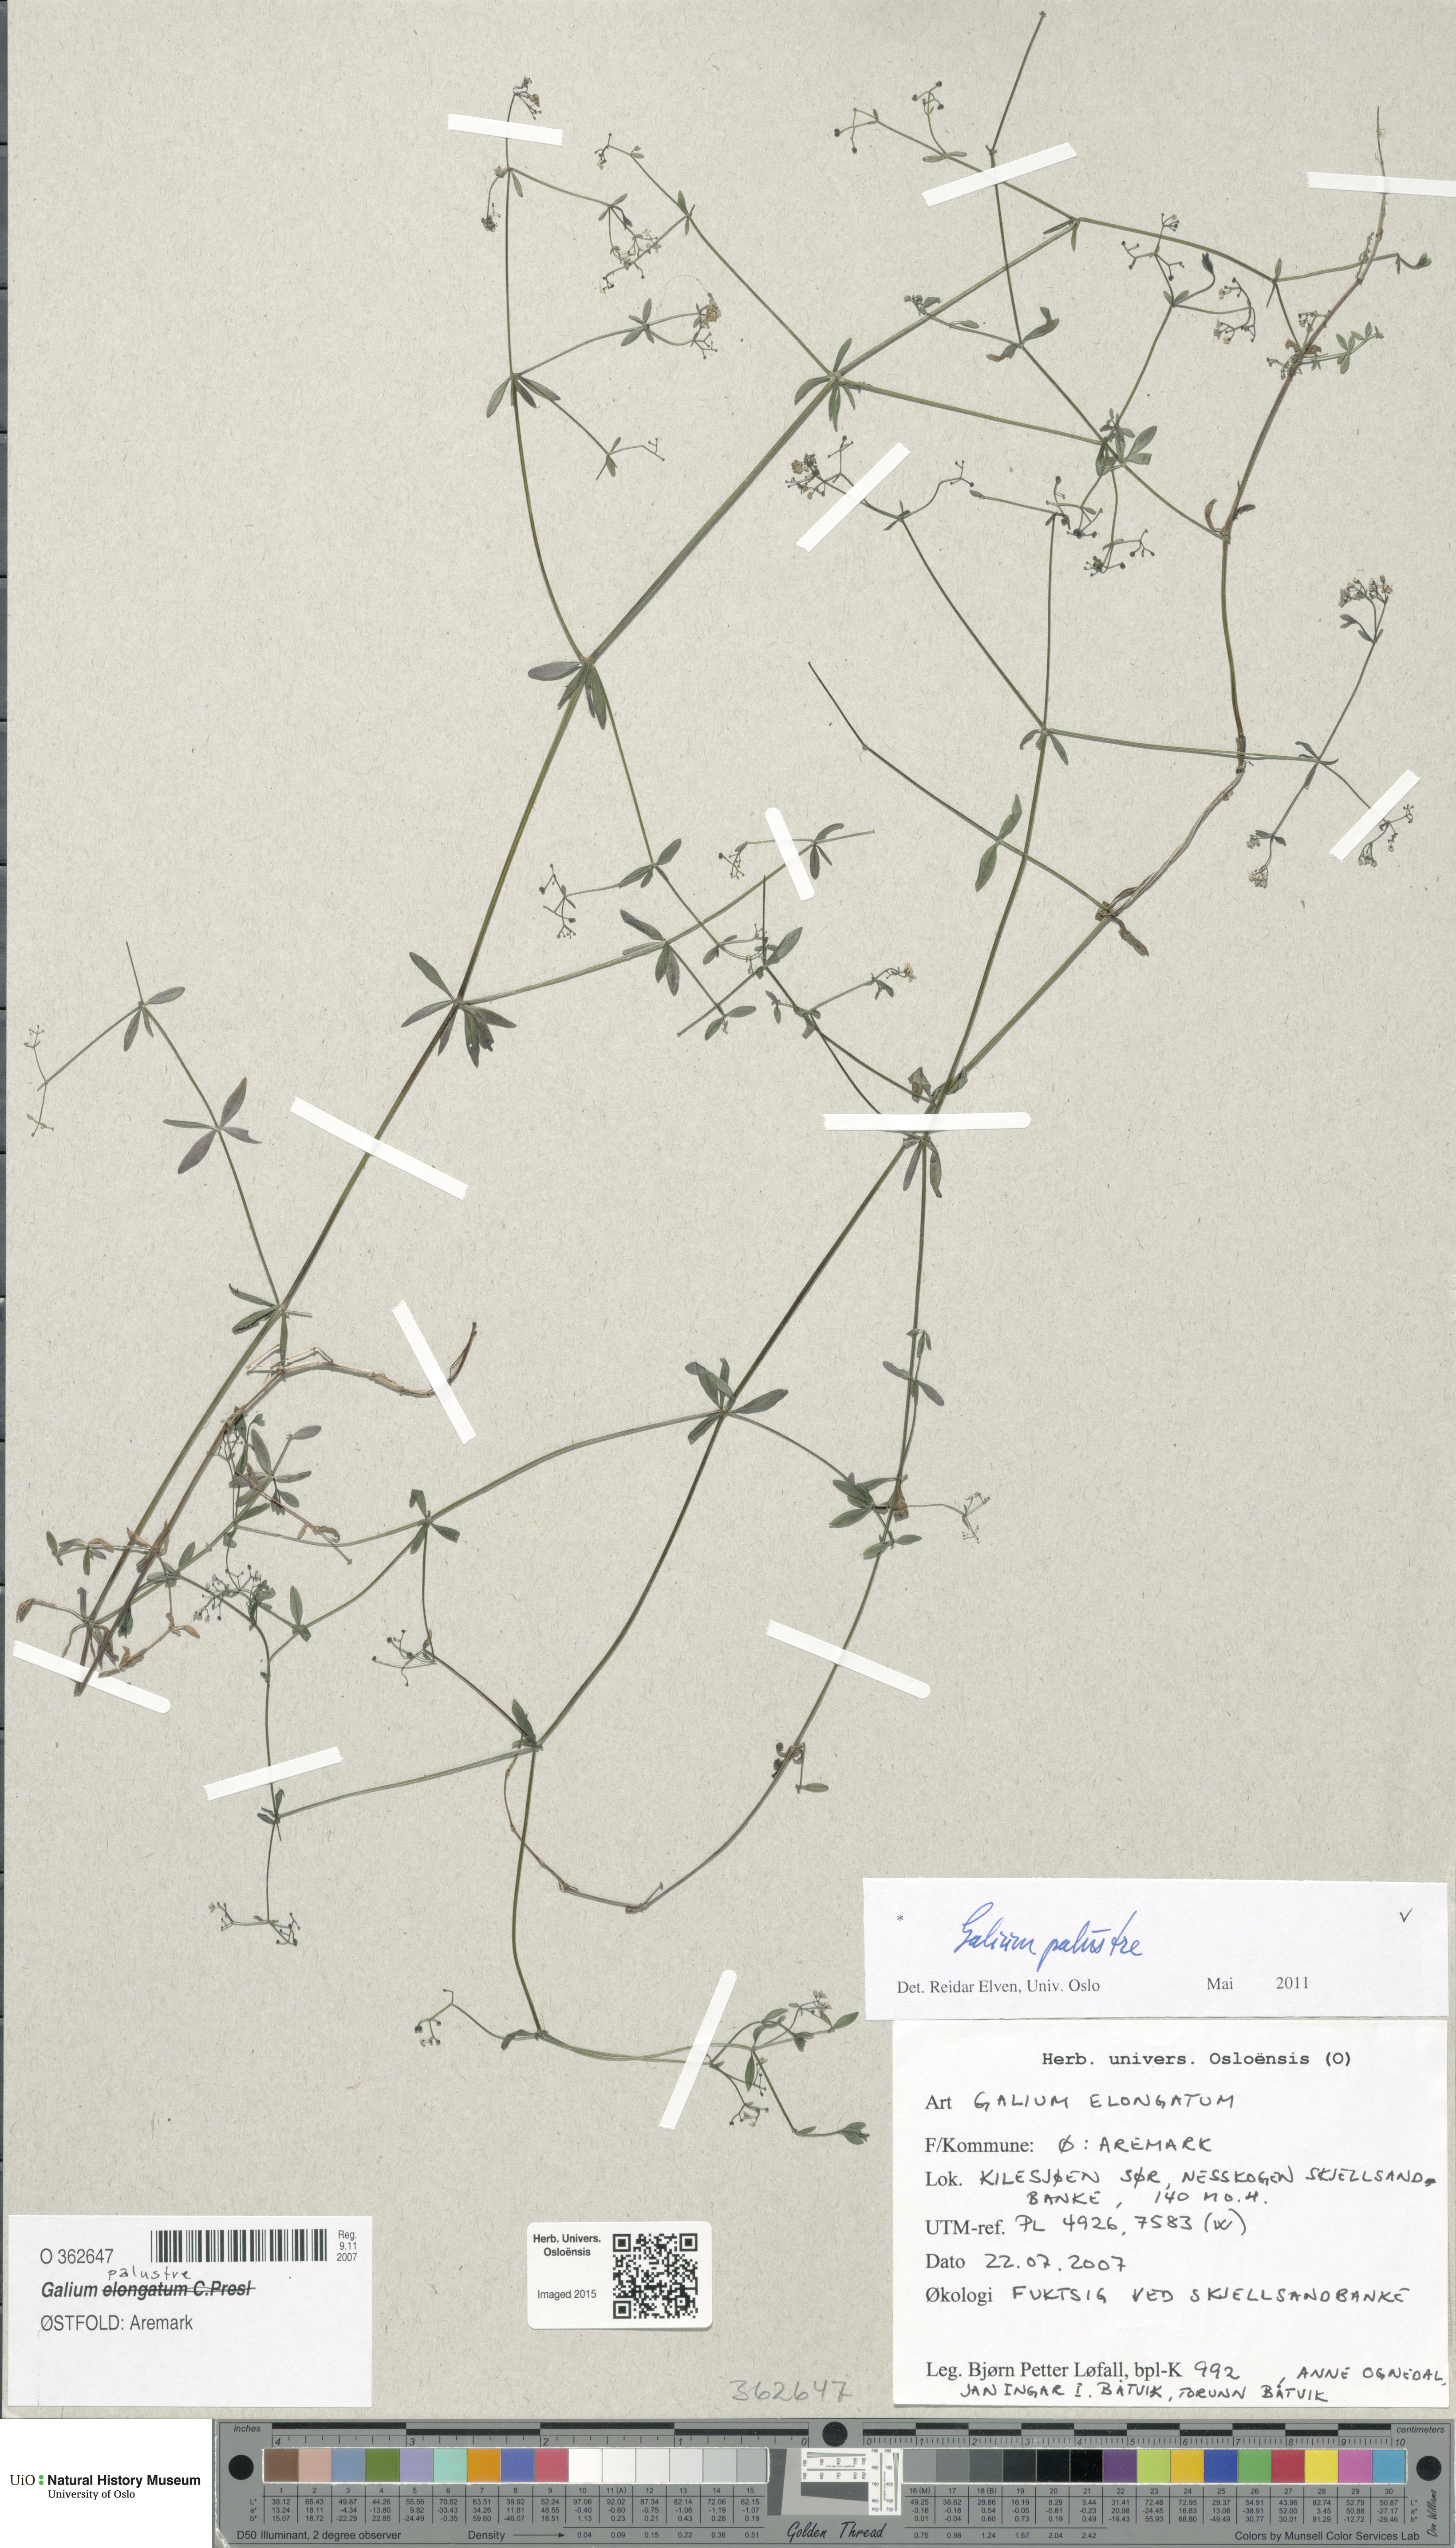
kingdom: Plantae
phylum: Tracheophyta
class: Magnoliopsida
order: Gentianales
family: Rubiaceae
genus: Galium
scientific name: Galium palustre
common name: Common marsh-bedstraw
